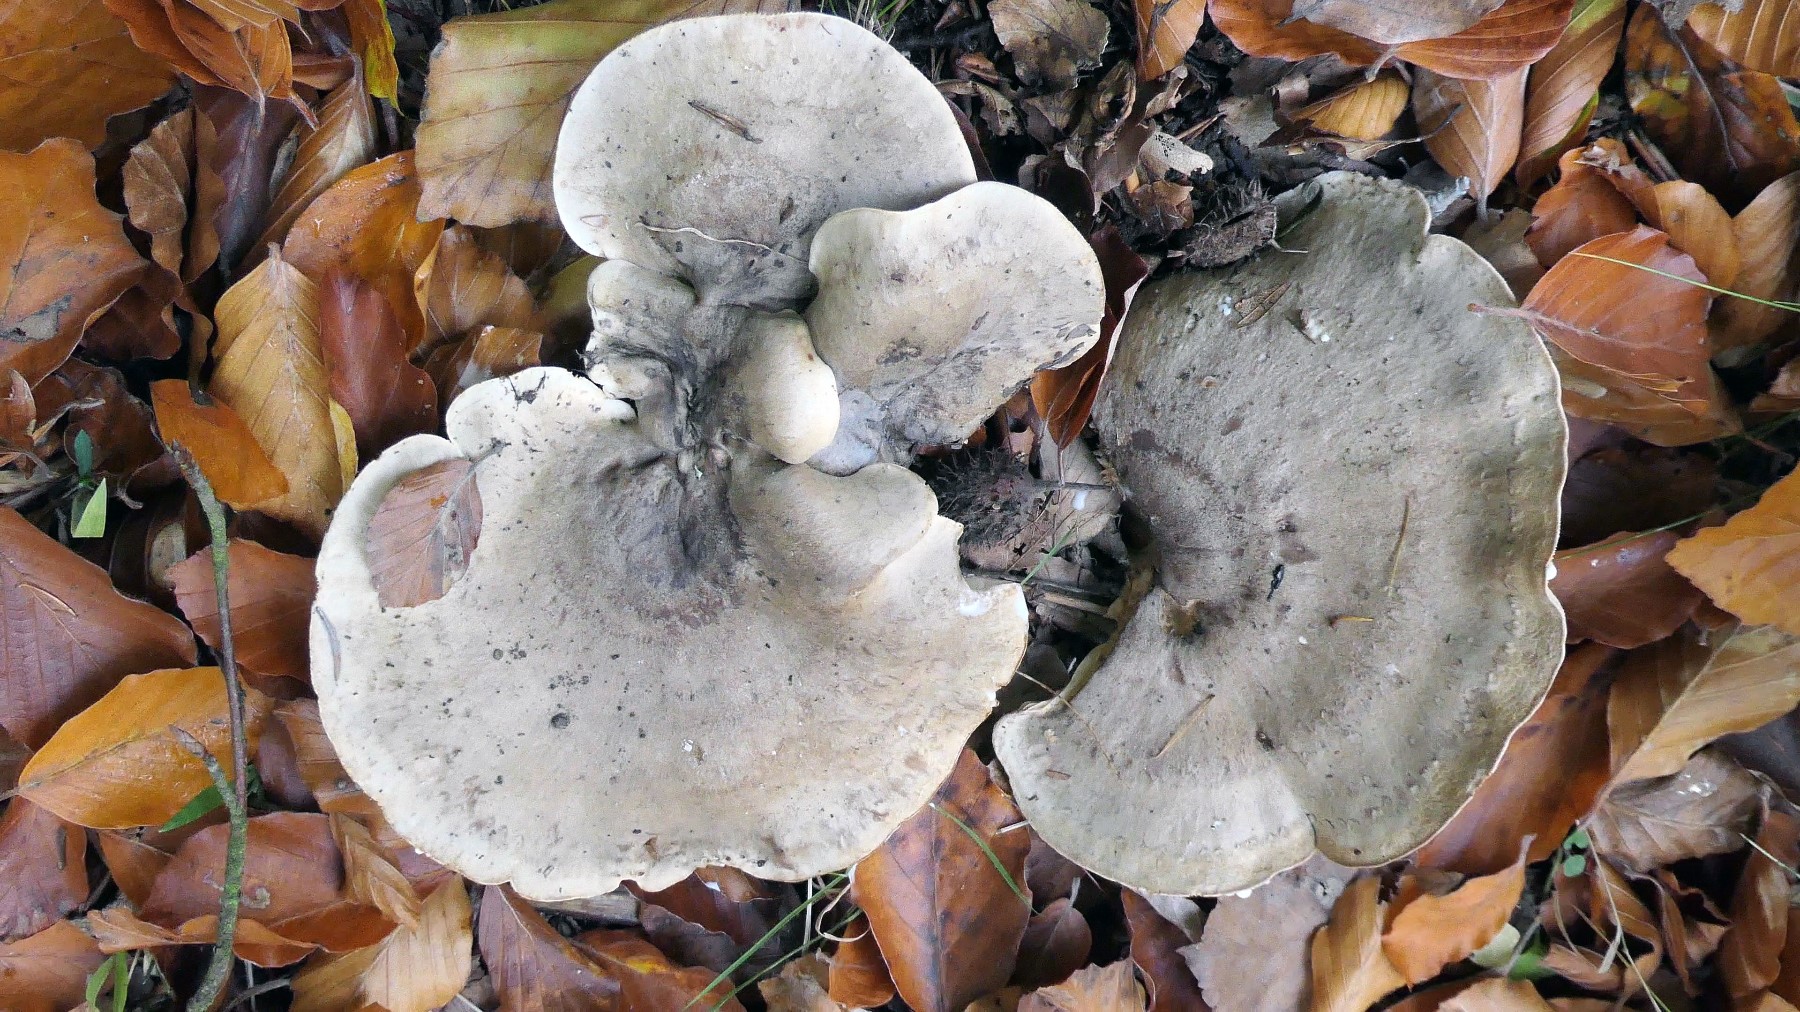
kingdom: Fungi
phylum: Basidiomycota
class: Agaricomycetes
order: Russulales
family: Russulaceae
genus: Lactarius
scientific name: Lactarius fluens
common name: lysrandet mælkehat
